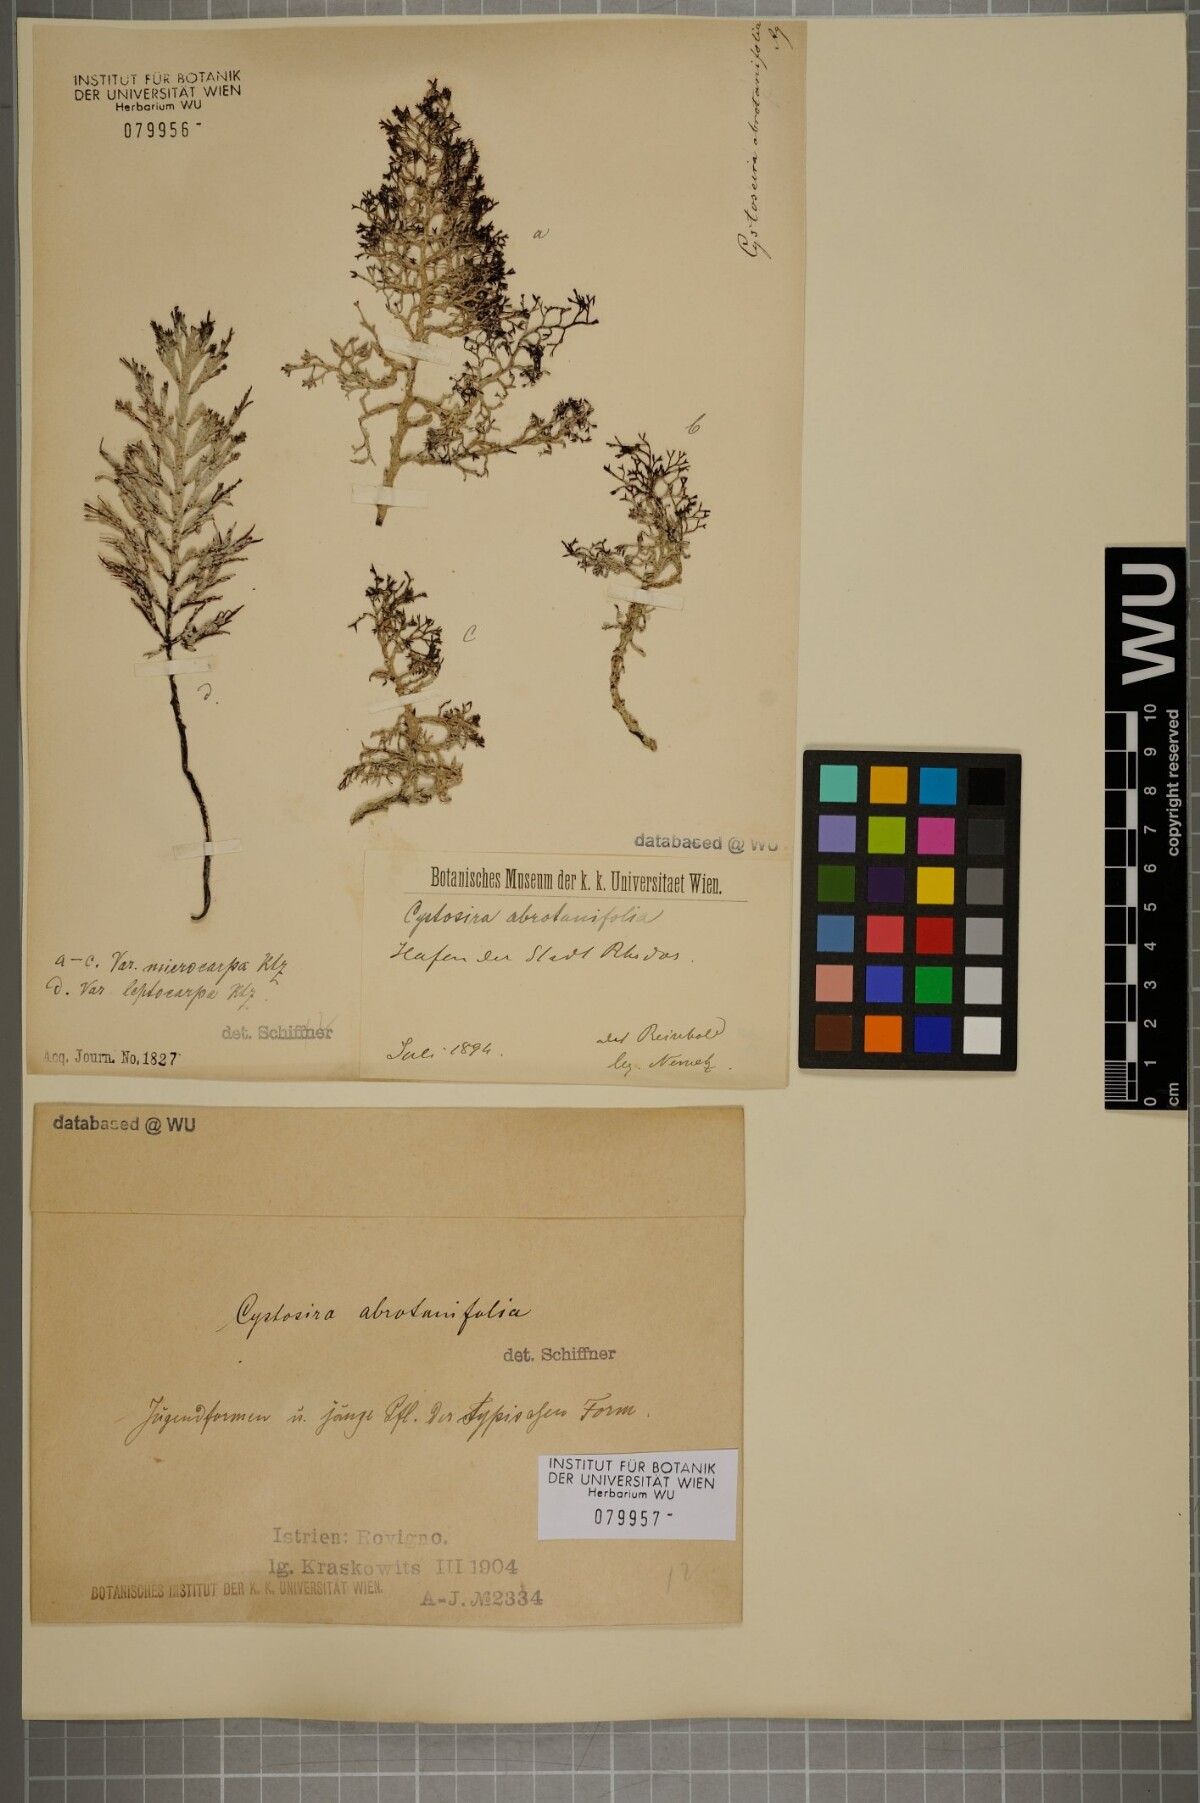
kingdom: Chromista
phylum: Ochrophyta
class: Phaeophyceae
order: Fucales
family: Sargassaceae
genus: Cystoseira
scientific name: Cystoseira foeniculacea
